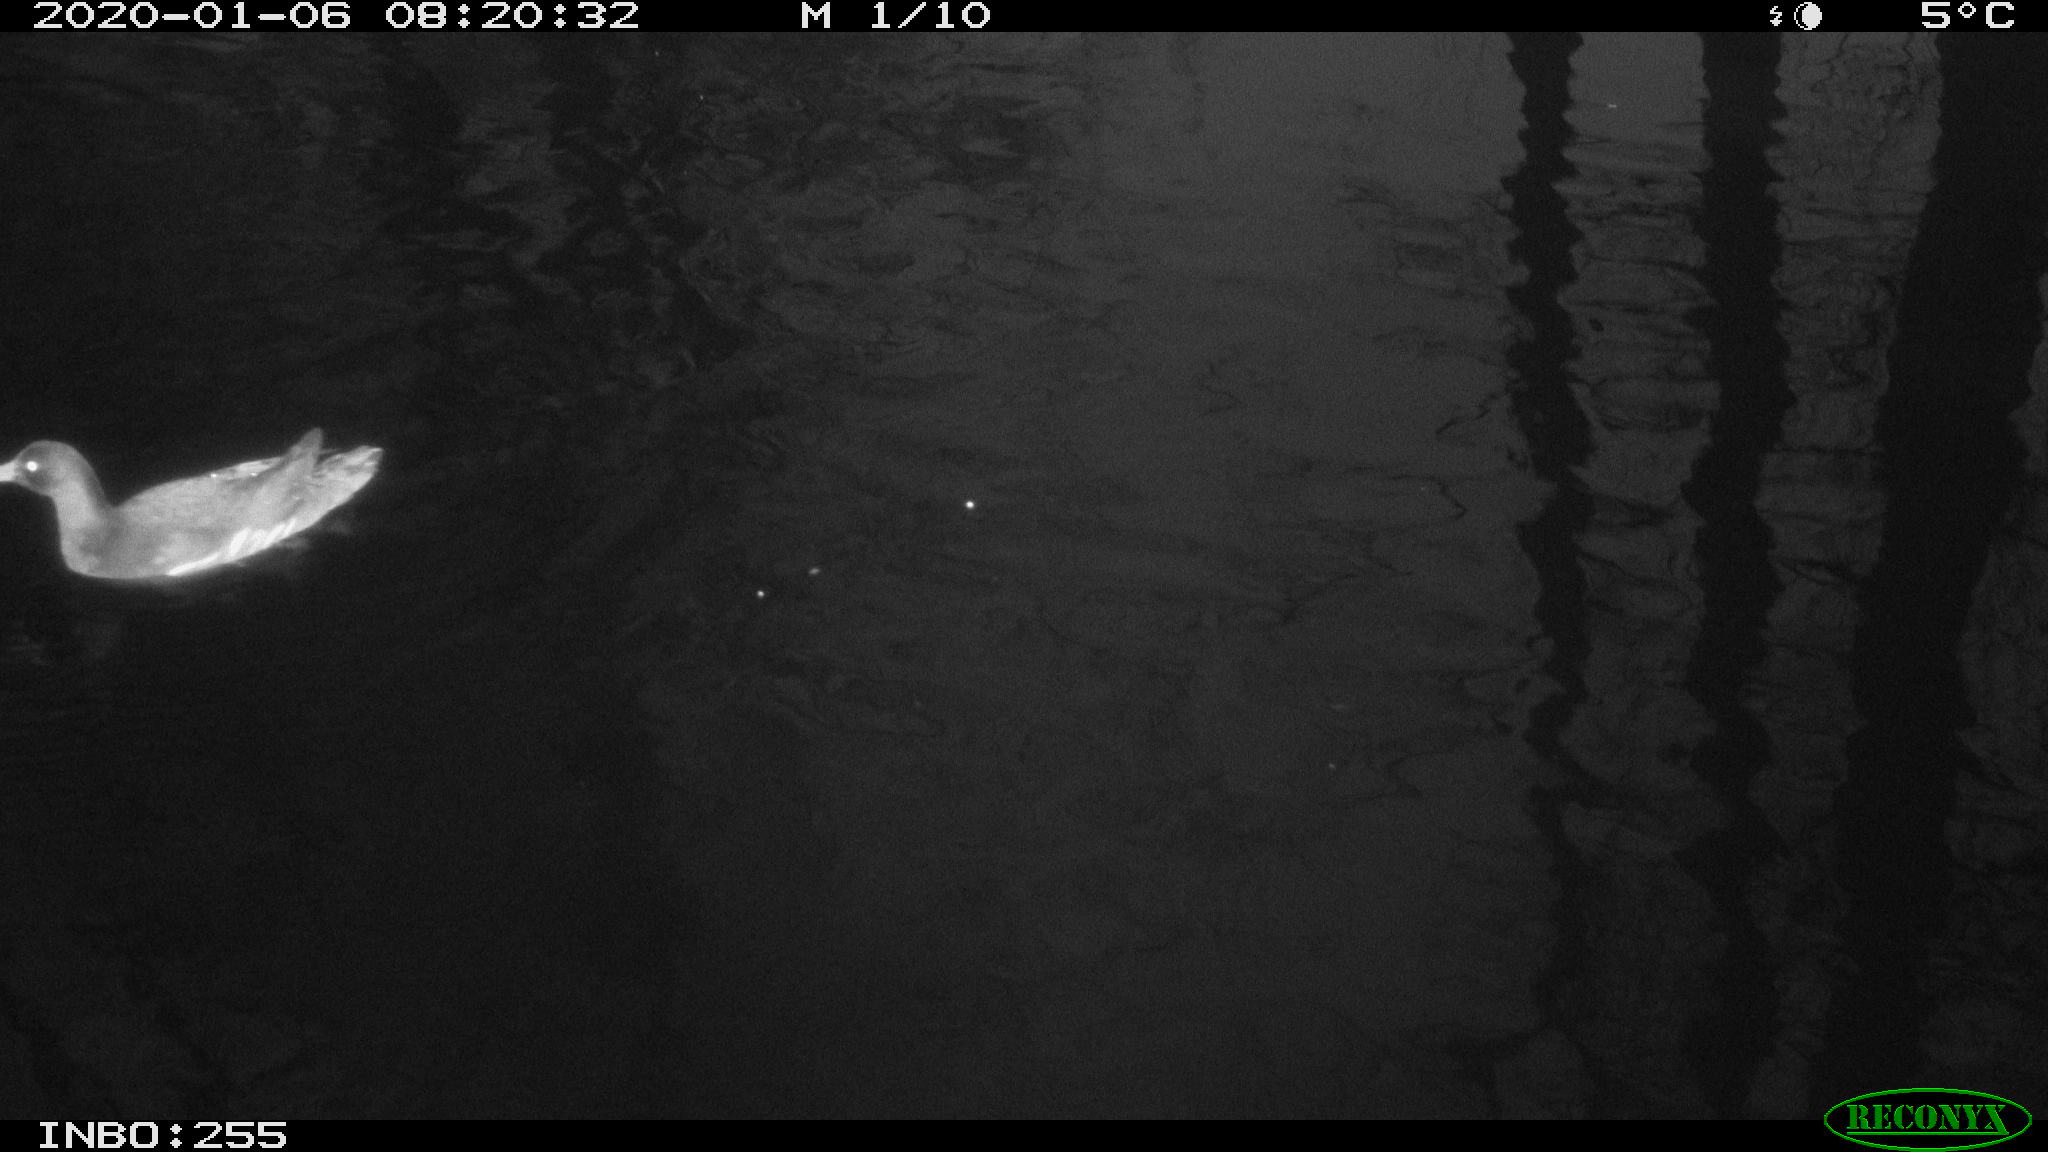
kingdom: Animalia
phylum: Chordata
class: Aves
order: Gruiformes
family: Rallidae
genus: Gallinula
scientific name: Gallinula chloropus
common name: Common moorhen
